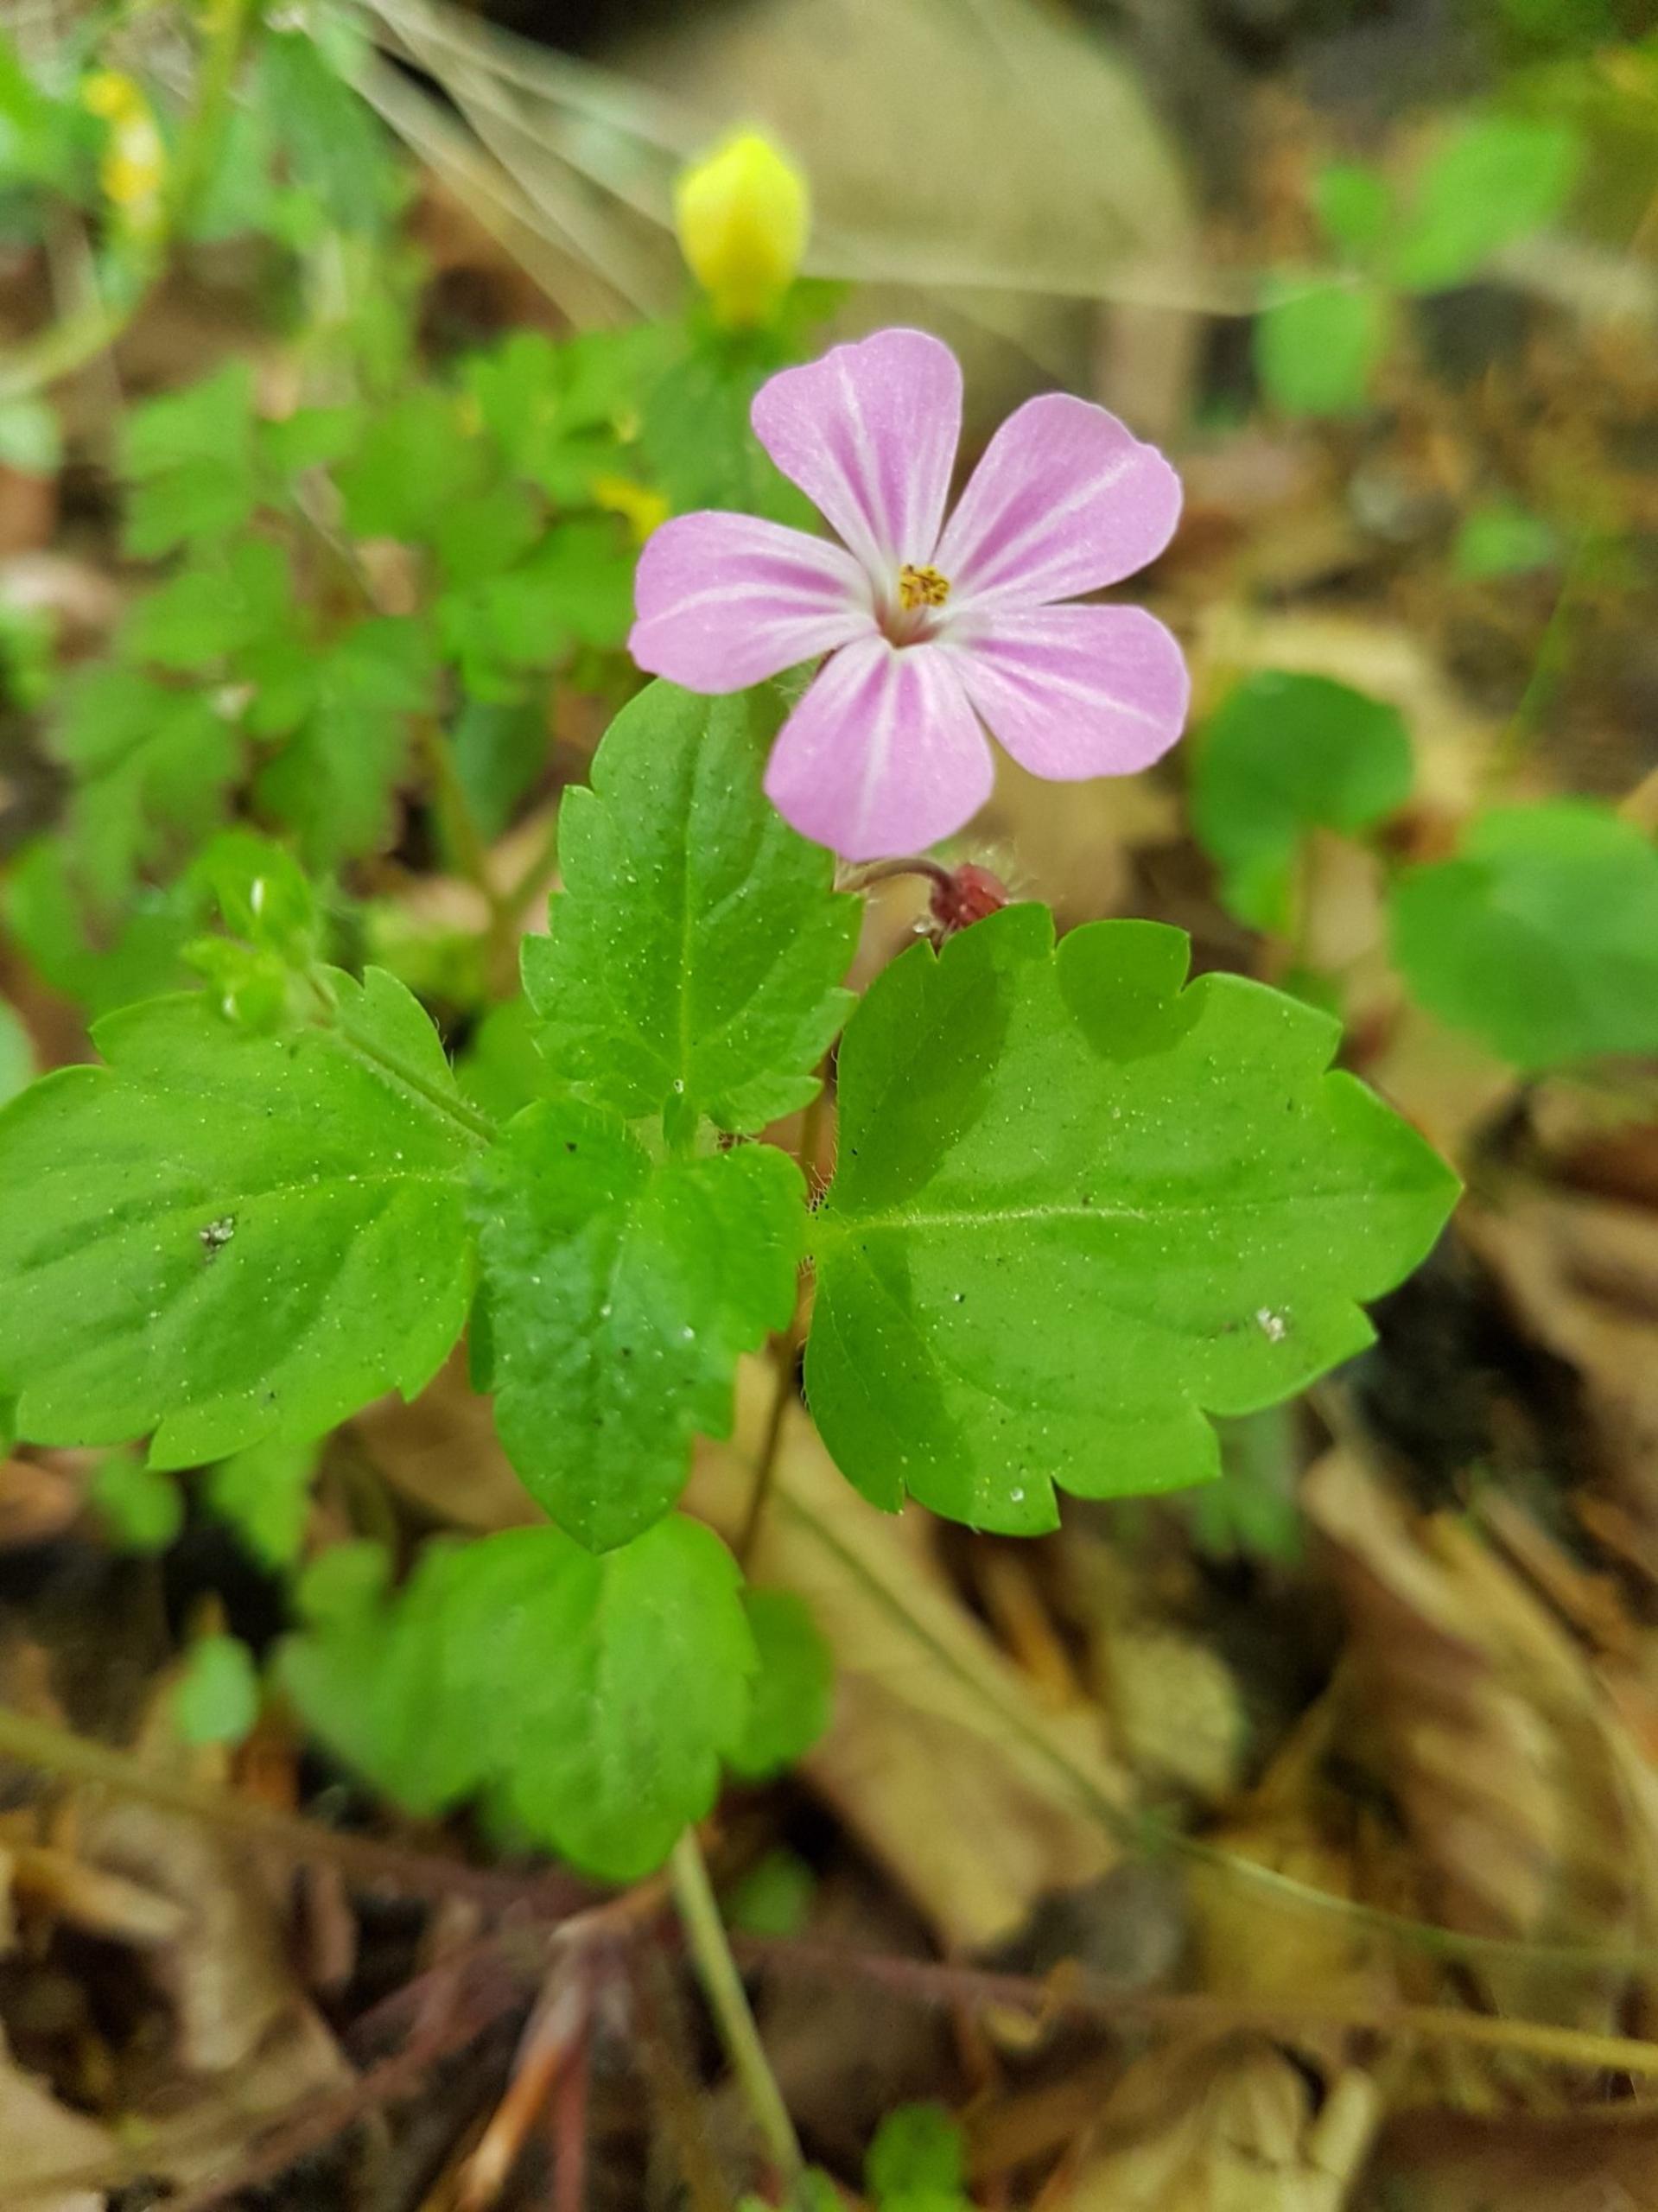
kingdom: Plantae
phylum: Tracheophyta
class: Magnoliopsida
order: Geraniales
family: Geraniaceae
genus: Geranium
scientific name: Geranium robertianum
